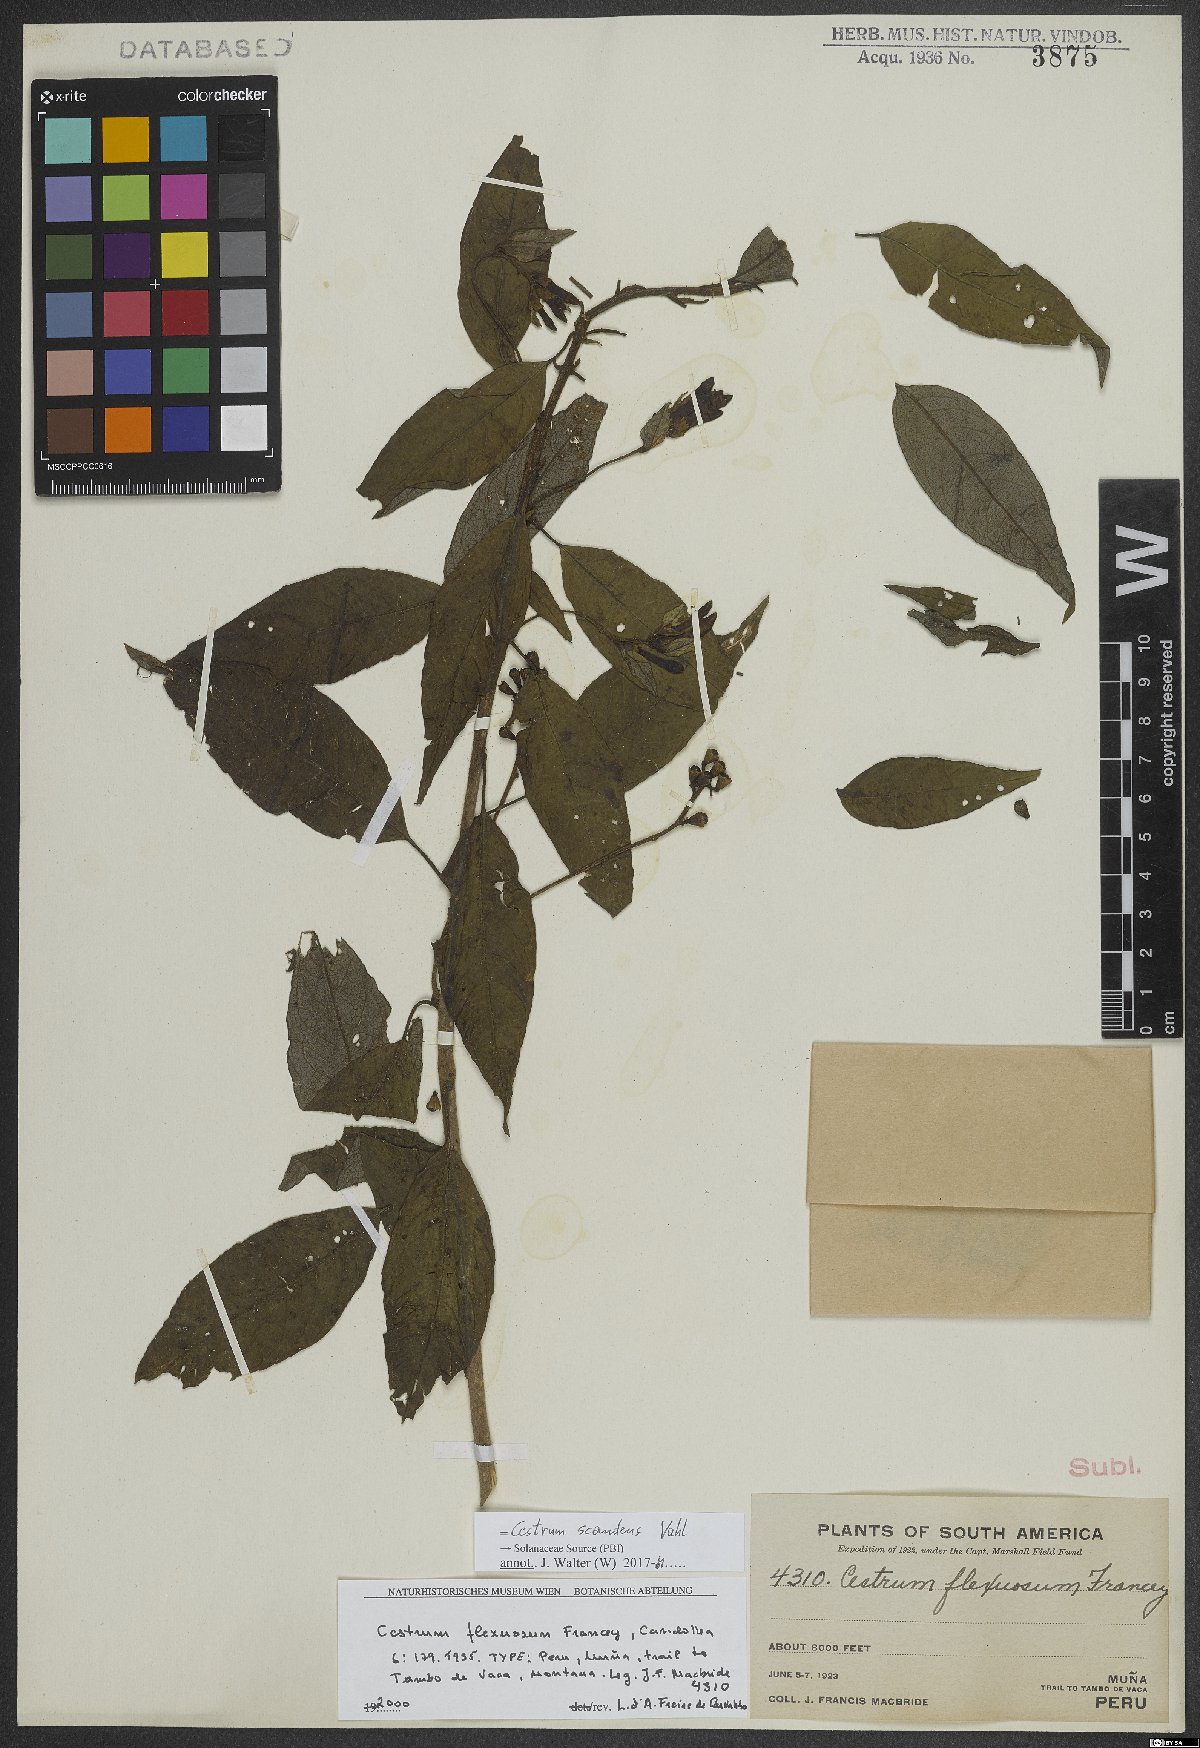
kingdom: Plantae
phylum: Tracheophyta
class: Magnoliopsida
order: Solanales
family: Solanaceae
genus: Cestrum
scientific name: Cestrum scandens
